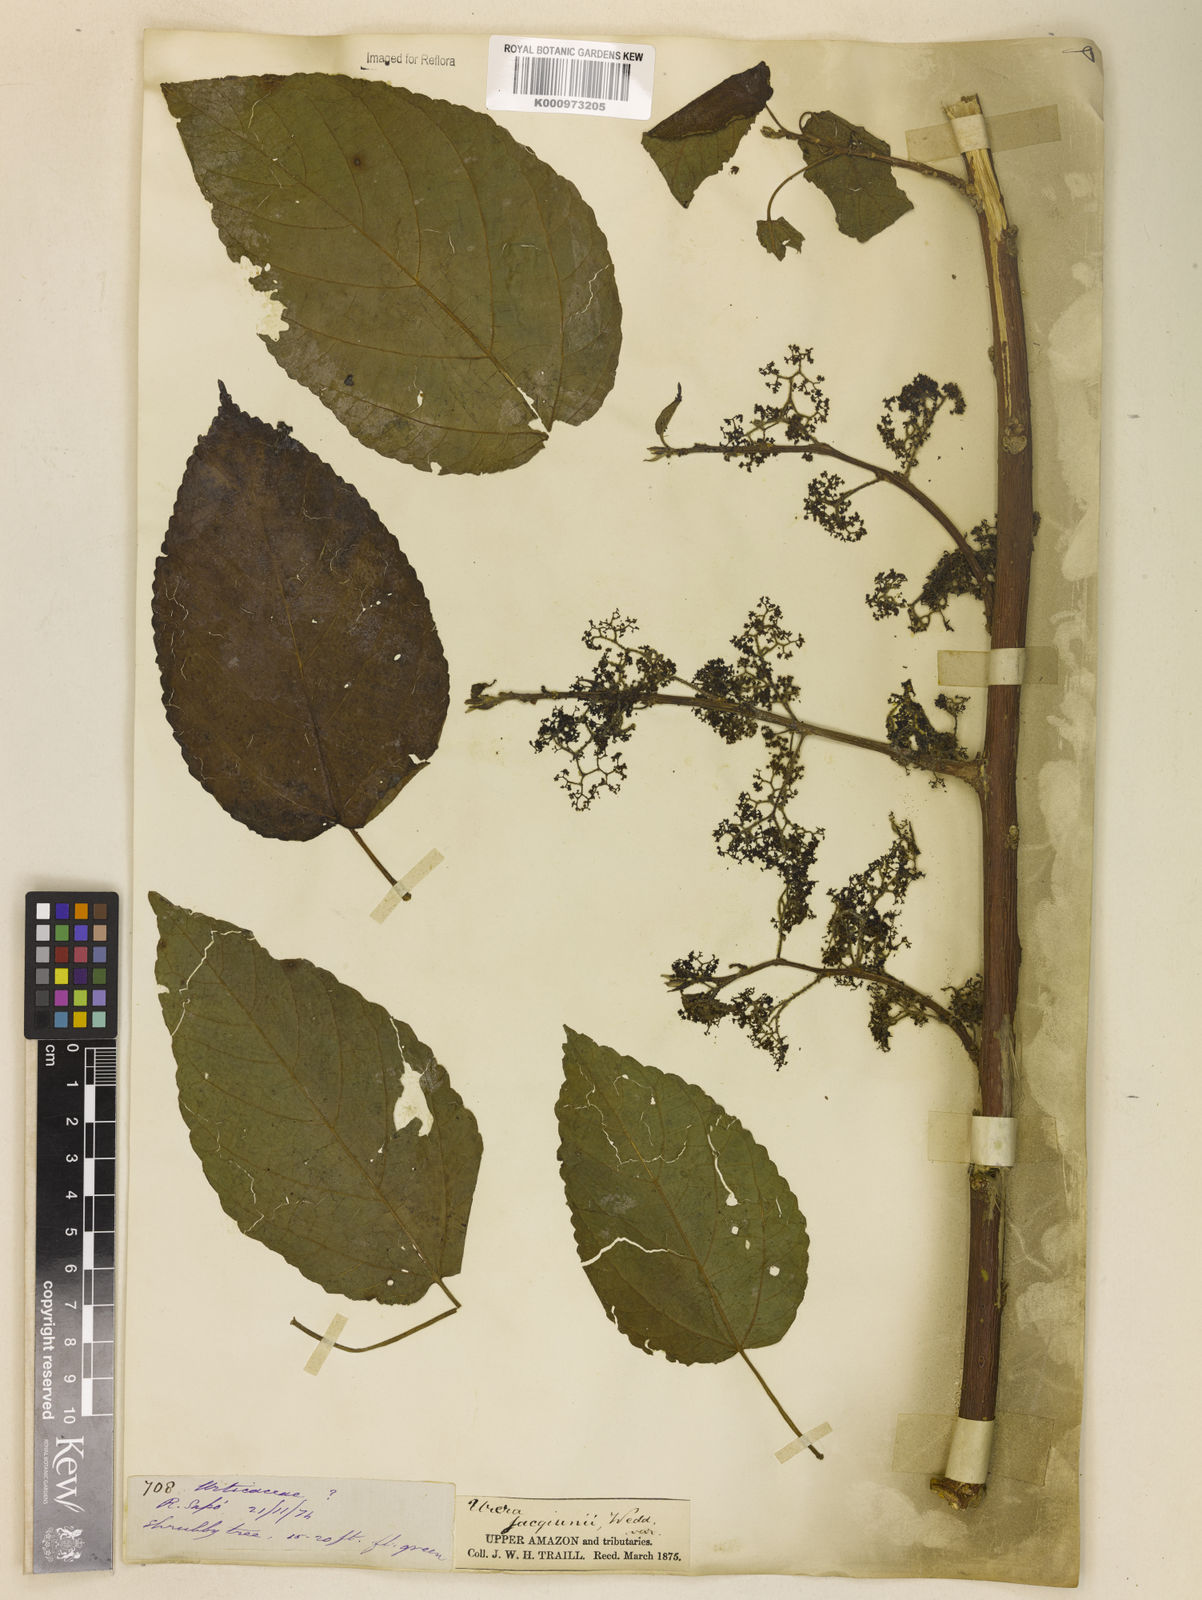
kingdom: Plantae
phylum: Tracheophyta
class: Magnoliopsida
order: Rosales
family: Urticaceae
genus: Urera
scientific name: Urera caracasana
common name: Flameberry
